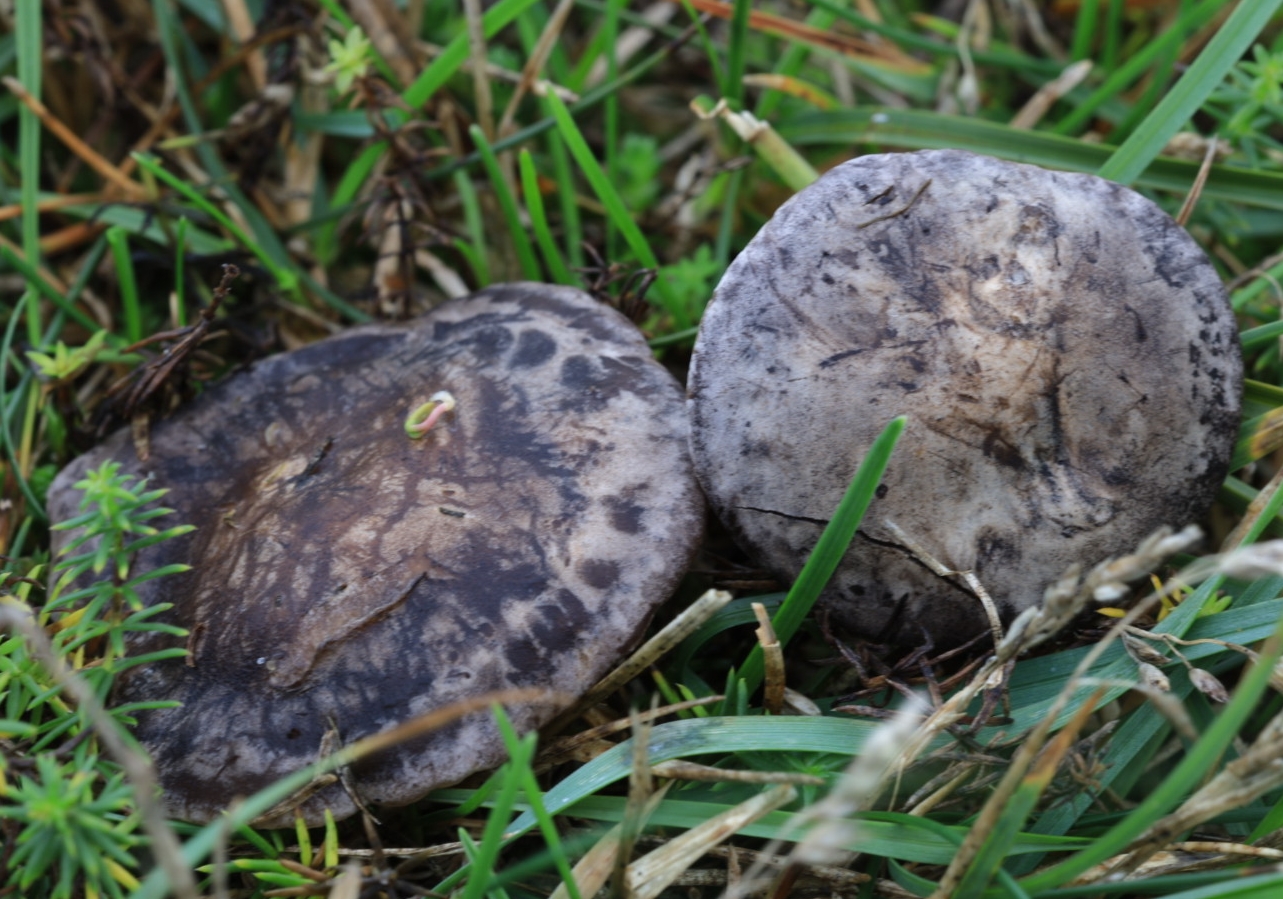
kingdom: Fungi
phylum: Basidiomycota
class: Agaricomycetes
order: Agaricales
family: Tricholomataceae
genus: Lulesia
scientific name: Lulesia
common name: sortnende troldhat
